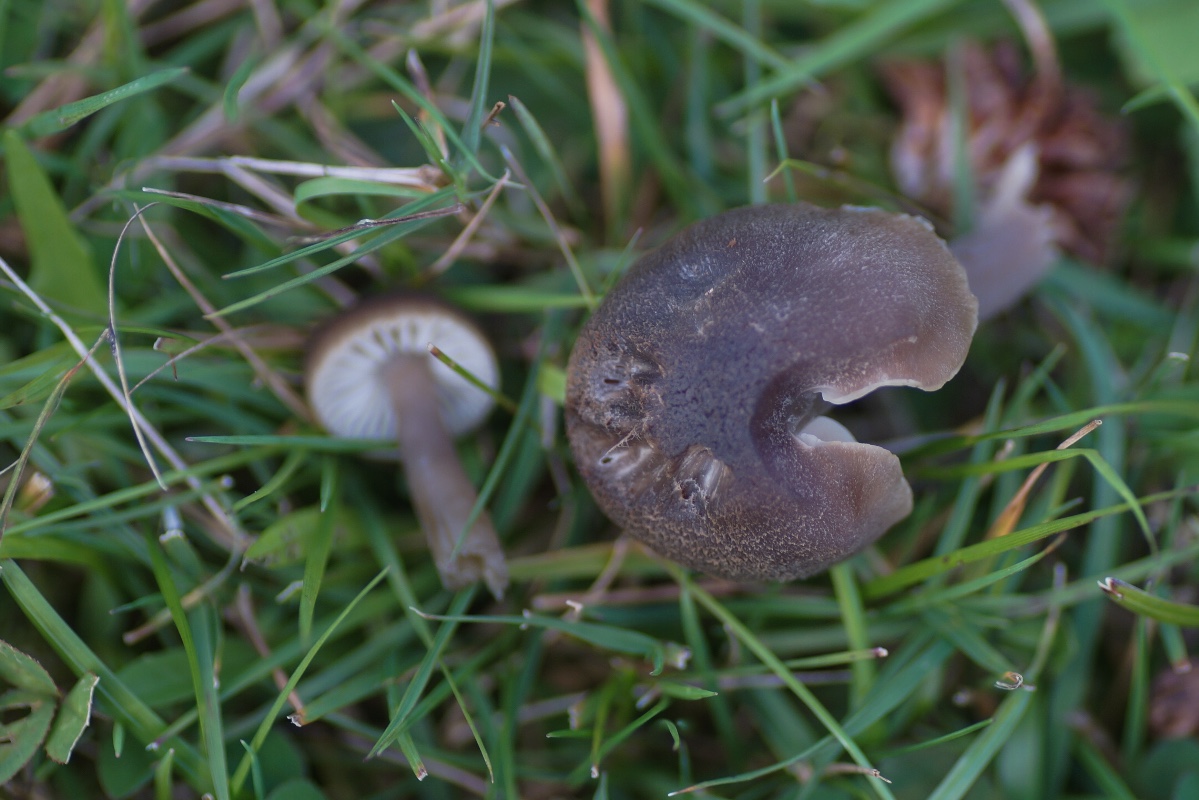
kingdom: Fungi
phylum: Basidiomycota
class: Agaricomycetes
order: Agaricales
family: Hygrophoraceae
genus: Neohygrocybe
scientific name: Neohygrocybe nitrata
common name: stinkende vokshat
